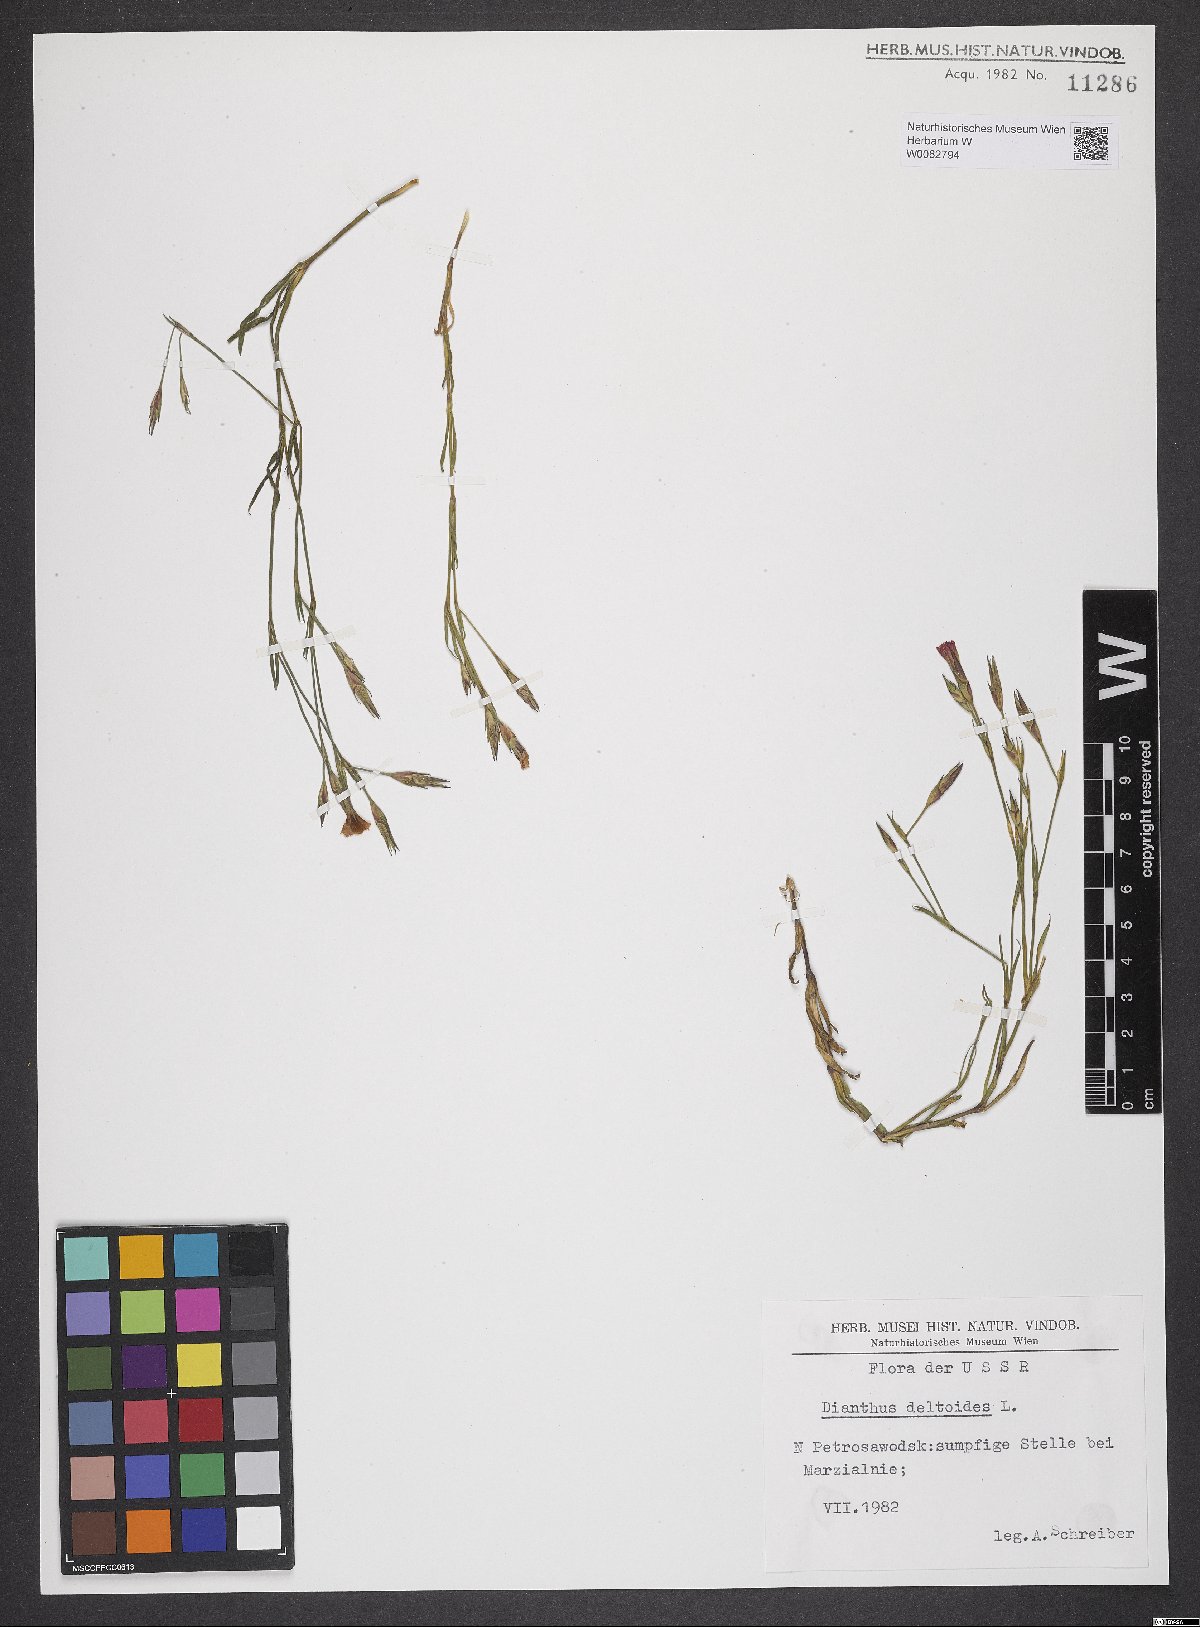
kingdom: Plantae
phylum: Tracheophyta
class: Magnoliopsida
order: Caryophyllales
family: Caryophyllaceae
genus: Dianthus
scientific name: Dianthus deltoides
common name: Maiden pink
